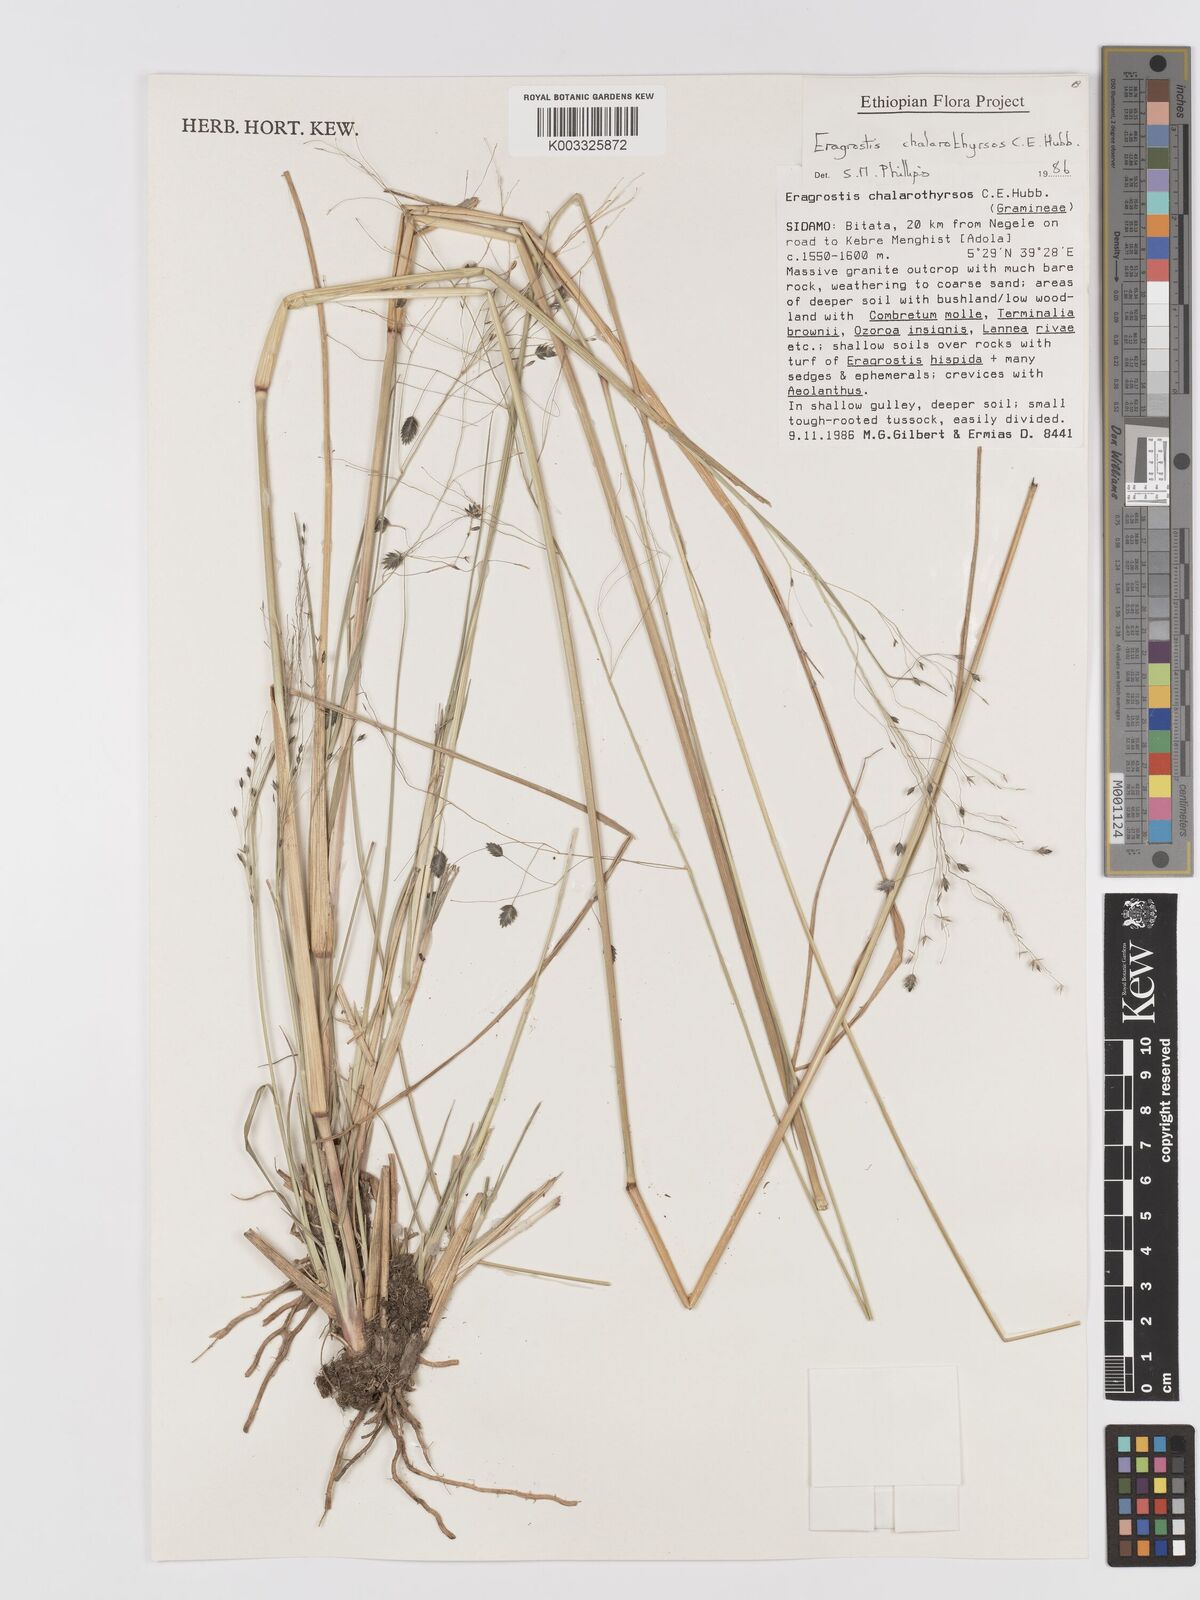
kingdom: Plantae
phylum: Tracheophyta
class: Liliopsida
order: Poales
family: Poaceae
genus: Eragrostis
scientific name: Eragrostis chalarothyrsos
